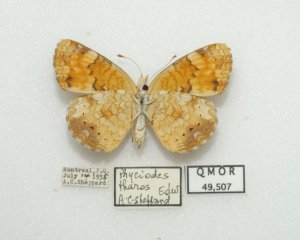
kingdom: Animalia
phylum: Arthropoda
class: Insecta
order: Lepidoptera
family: Nymphalidae
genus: Phyciodes
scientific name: Phyciodes tharos
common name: Northern Crescent
